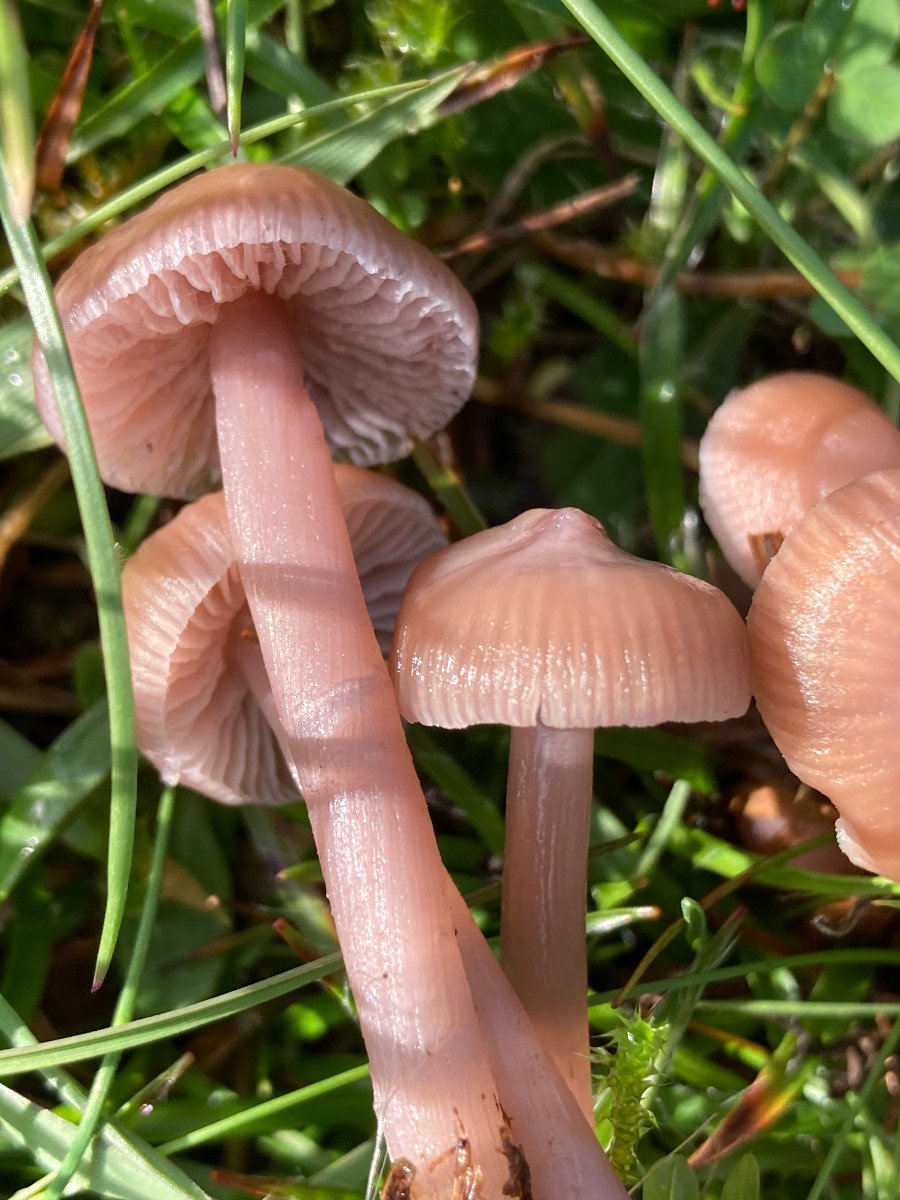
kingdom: Fungi
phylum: Basidiomycota
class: Agaricomycetes
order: Agaricales
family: Mycenaceae
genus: Mycena
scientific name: Mycena luteovariegata
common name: lillagul huesvamp
